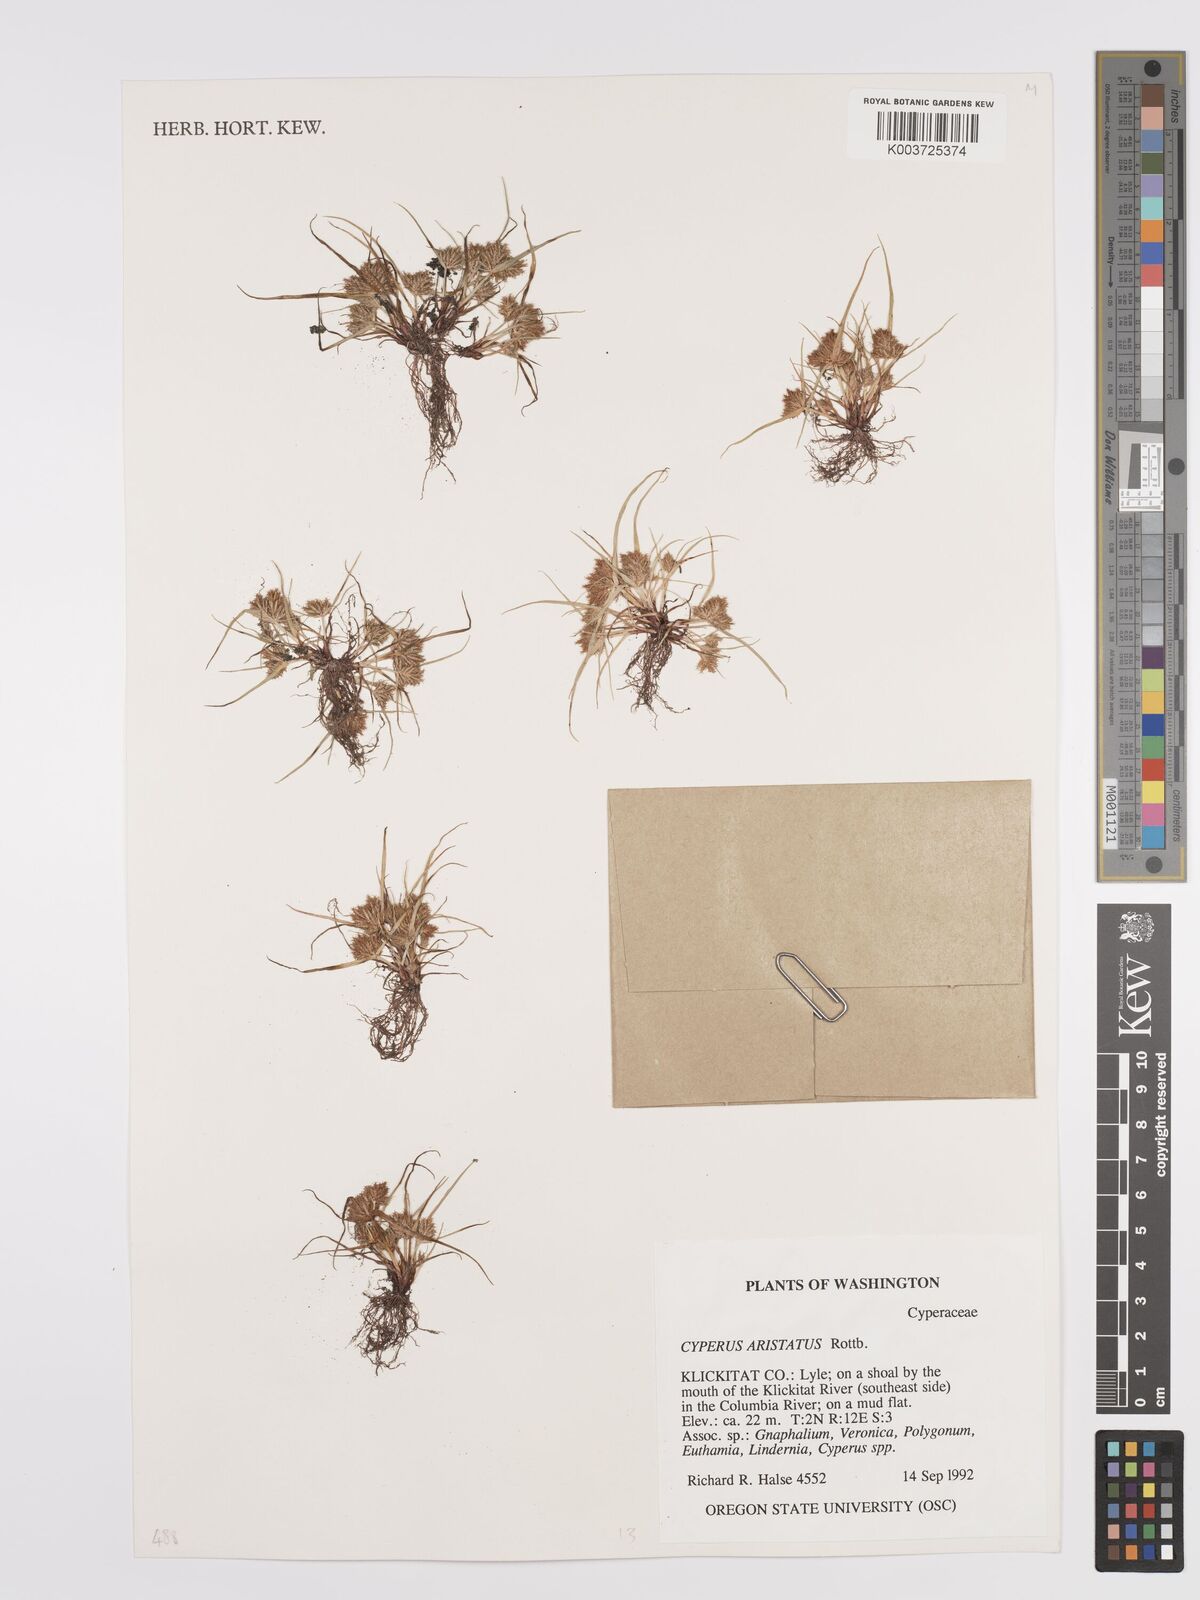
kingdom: Plantae
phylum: Tracheophyta
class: Liliopsida
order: Poales
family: Cyperaceae
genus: Cyperus
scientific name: Cyperus squarrosus
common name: Awned cyperus
